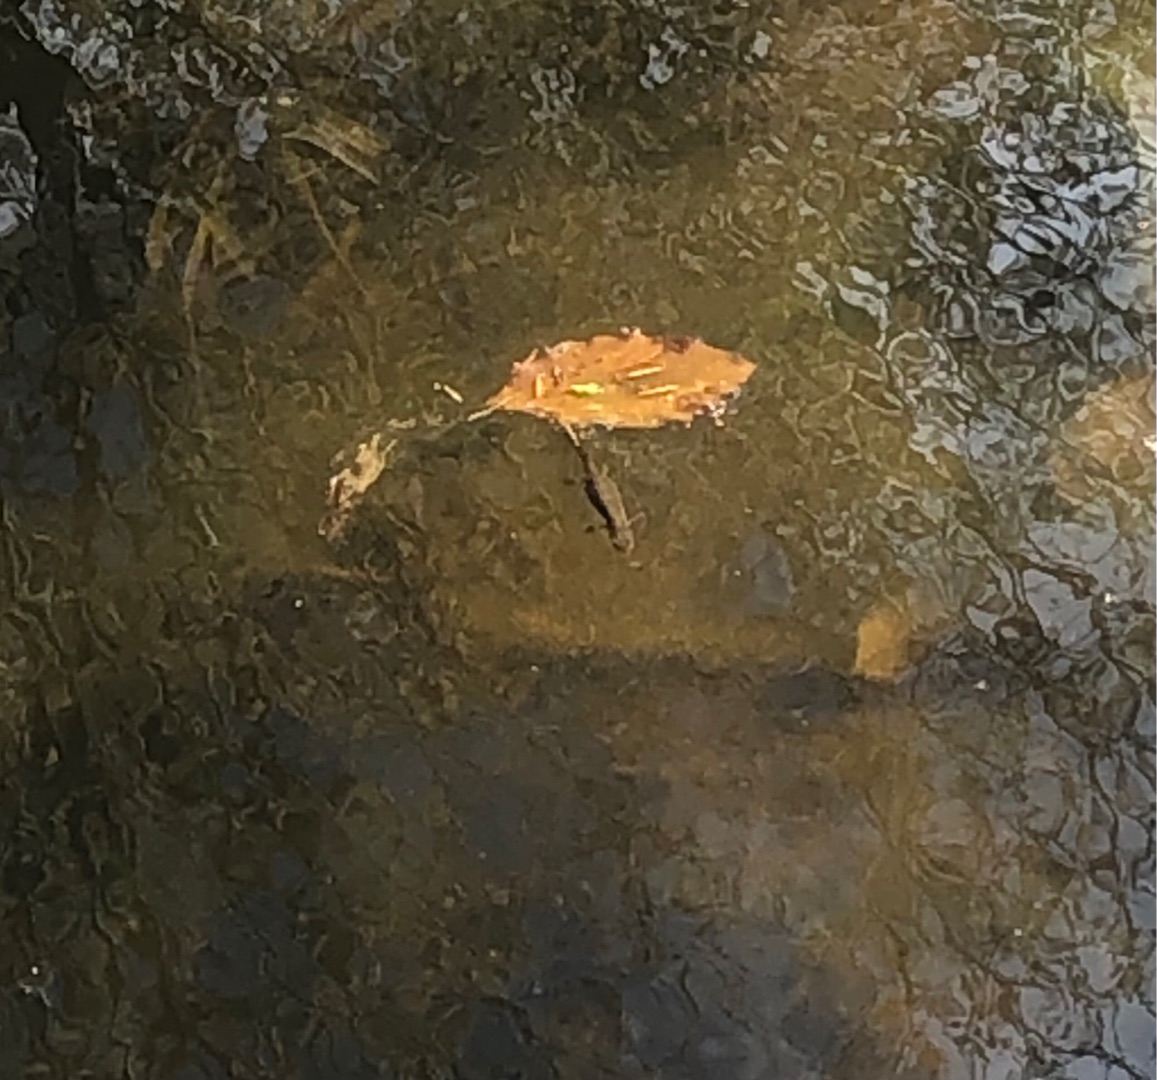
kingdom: Animalia
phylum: Chordata
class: Amphibia
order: Caudata
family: Salamandridae
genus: Lissotriton
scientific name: Lissotriton vulgaris
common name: Lille vandsalamander
